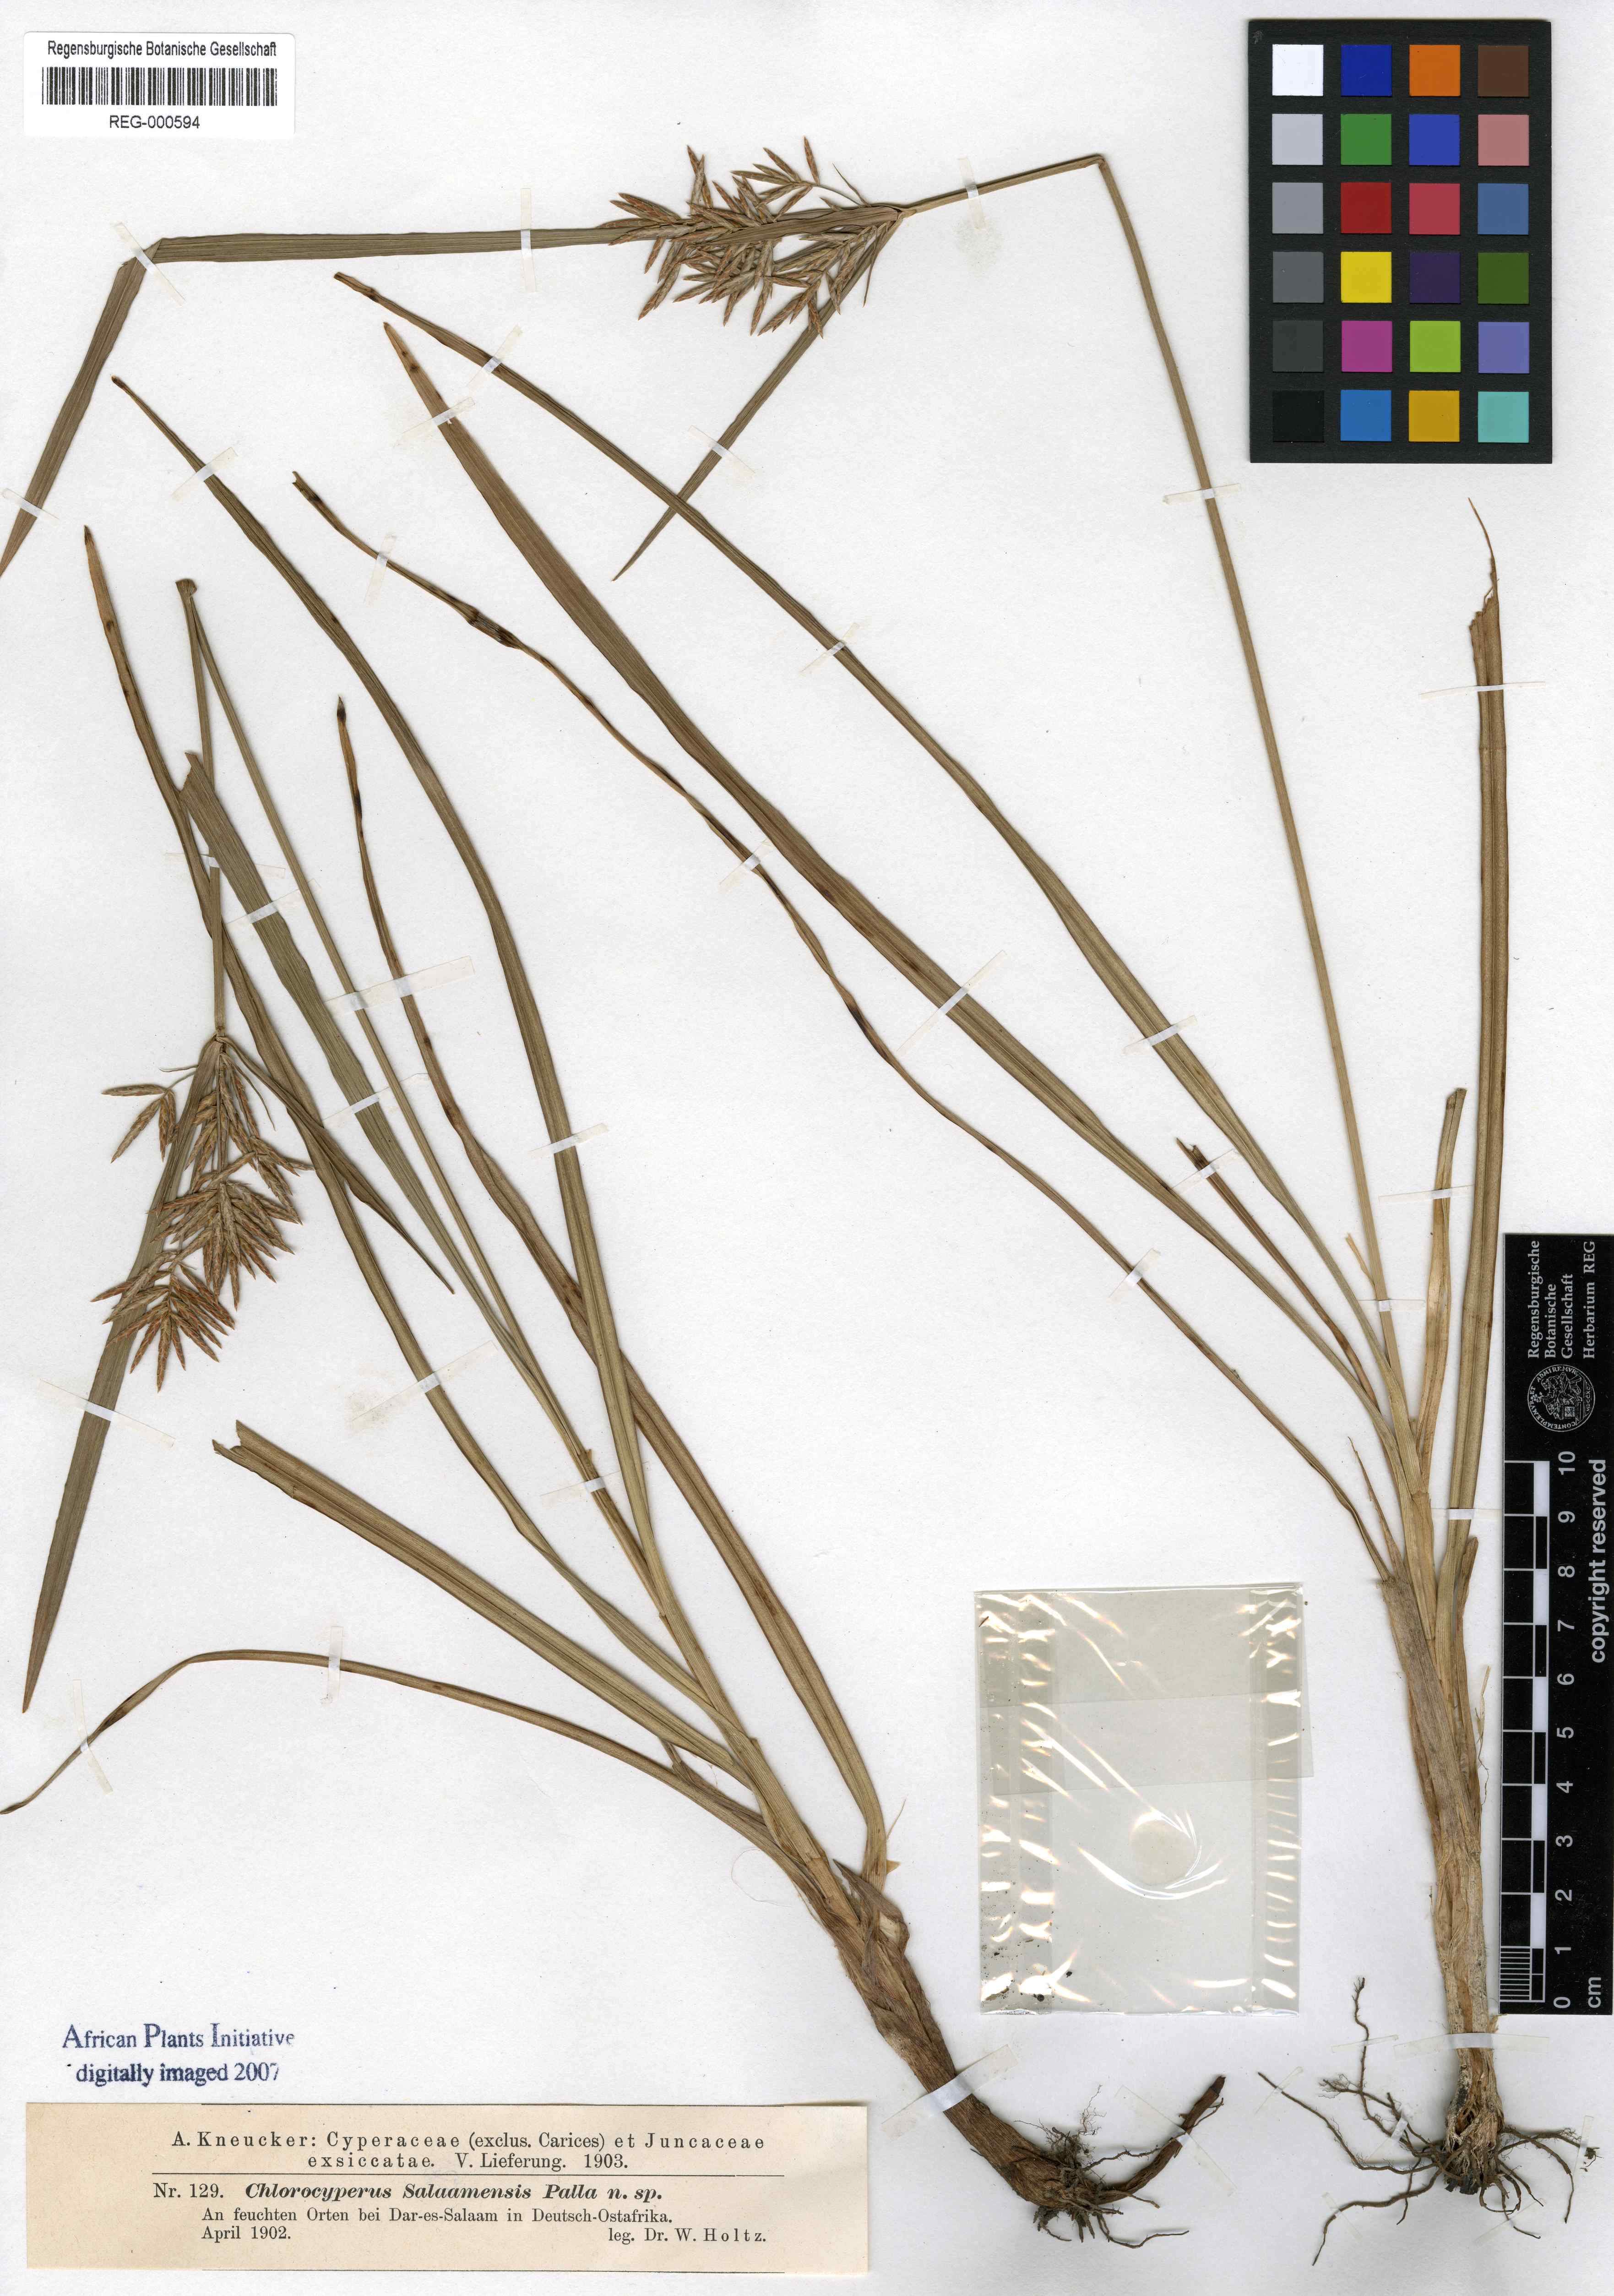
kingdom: Plantae
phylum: Tracheophyta
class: Liliopsida
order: Poales
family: Cyperaceae
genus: Cyperus
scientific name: Cyperus tuberosus
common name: Nut grass
